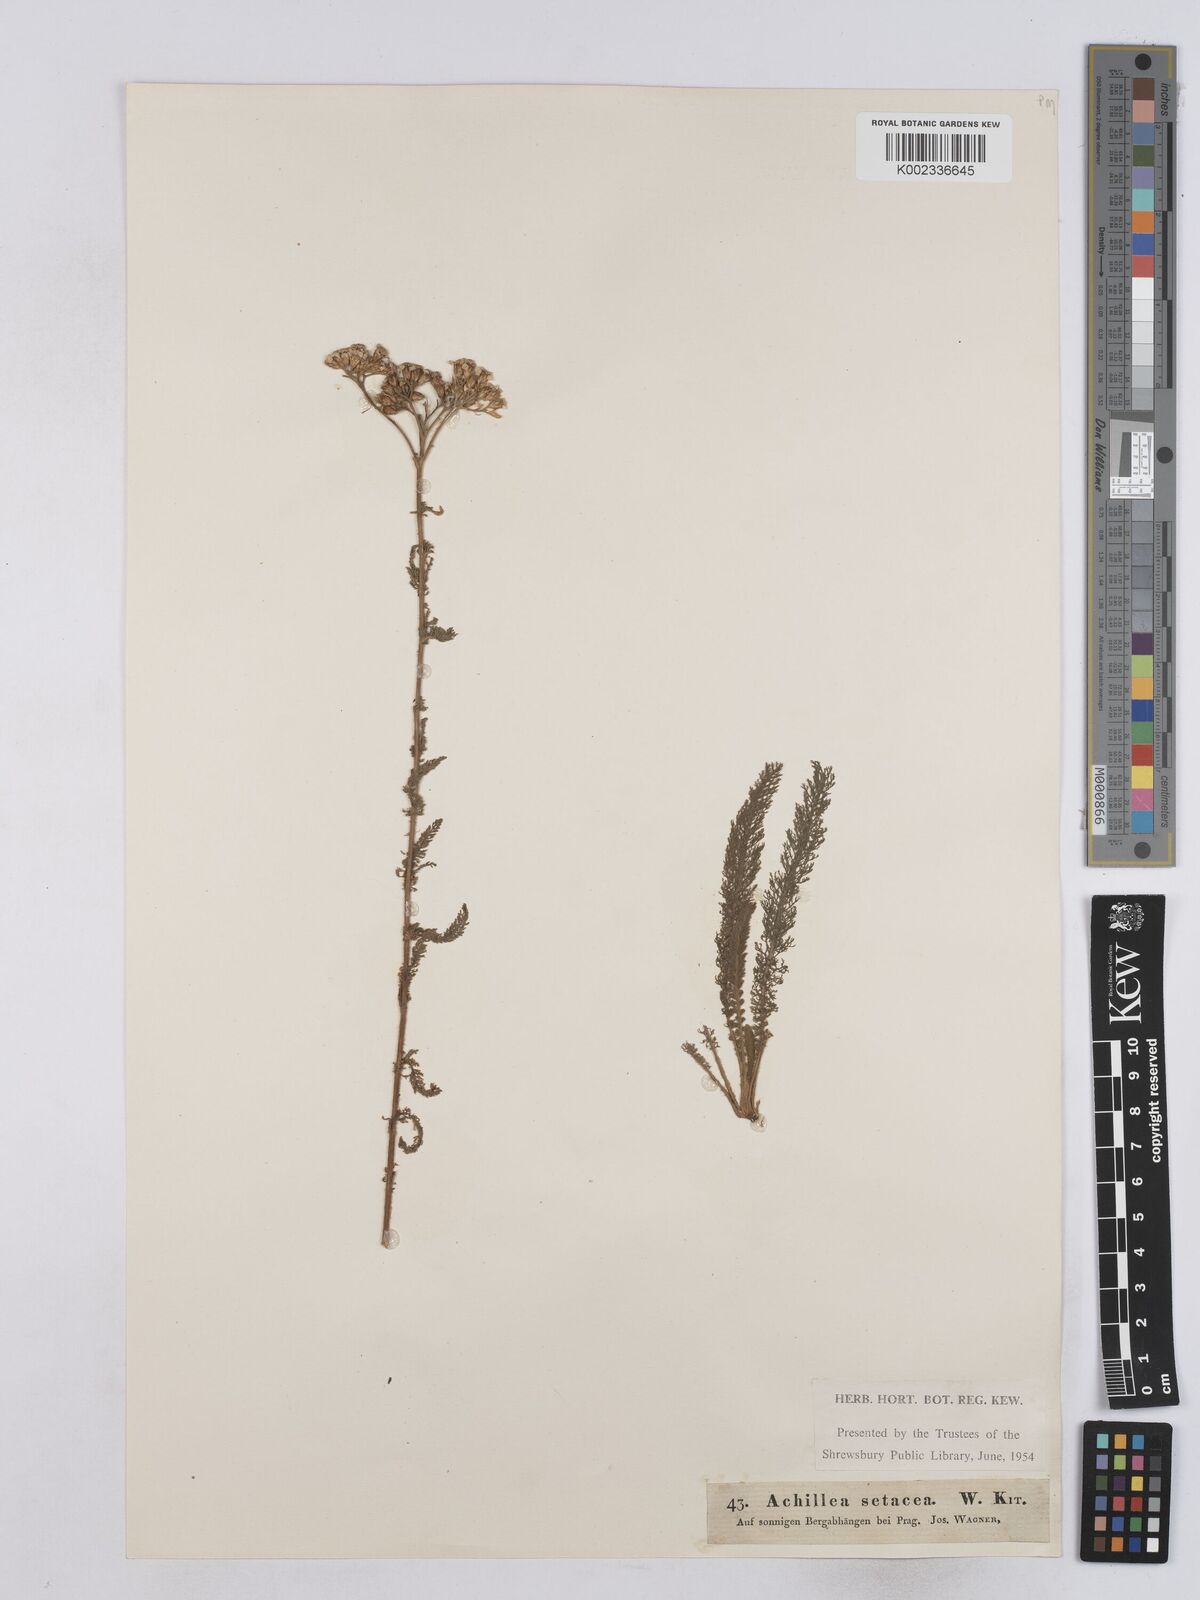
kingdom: Plantae
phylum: Tracheophyta
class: Magnoliopsida
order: Asterales
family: Asteraceae
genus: Achillea
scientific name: Achillea setacea
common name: Bristly yarrow
